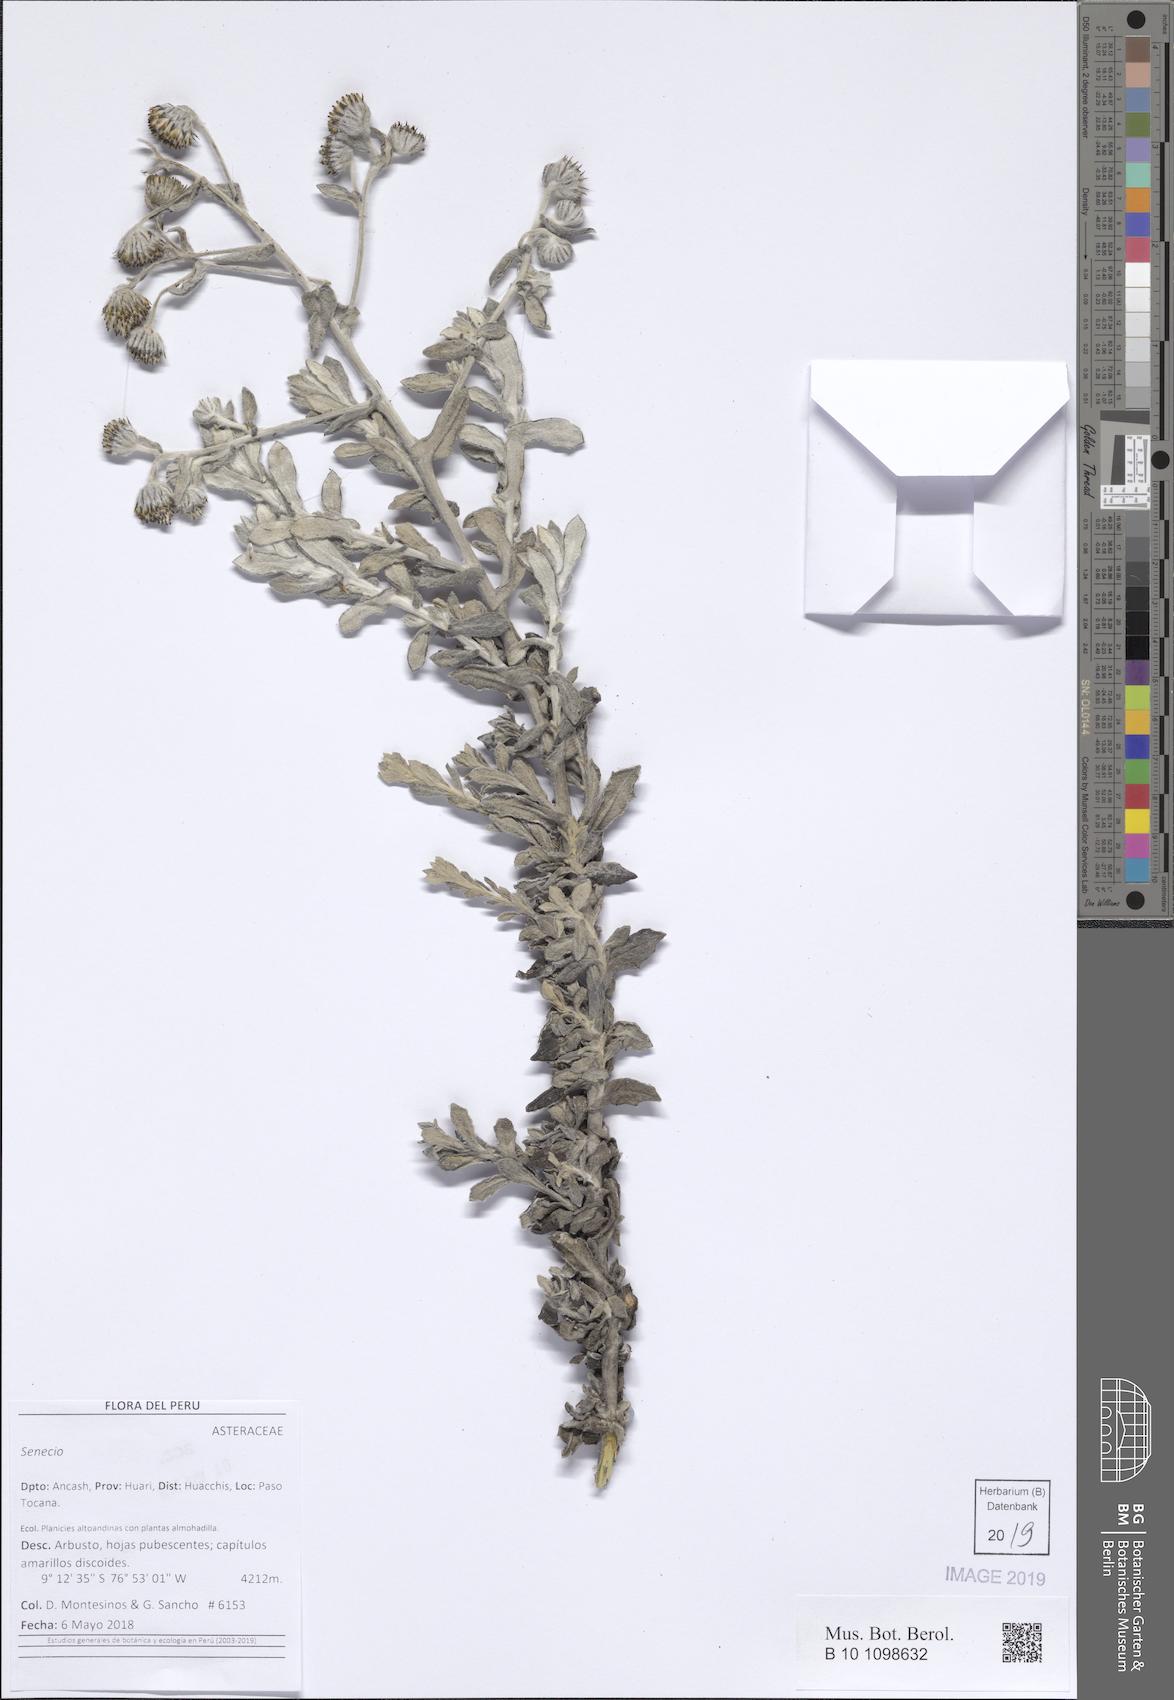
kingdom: Plantae
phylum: Tracheophyta
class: Magnoliopsida
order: Asterales
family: Asteraceae
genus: Senecio
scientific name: Senecio scrobicarioides
